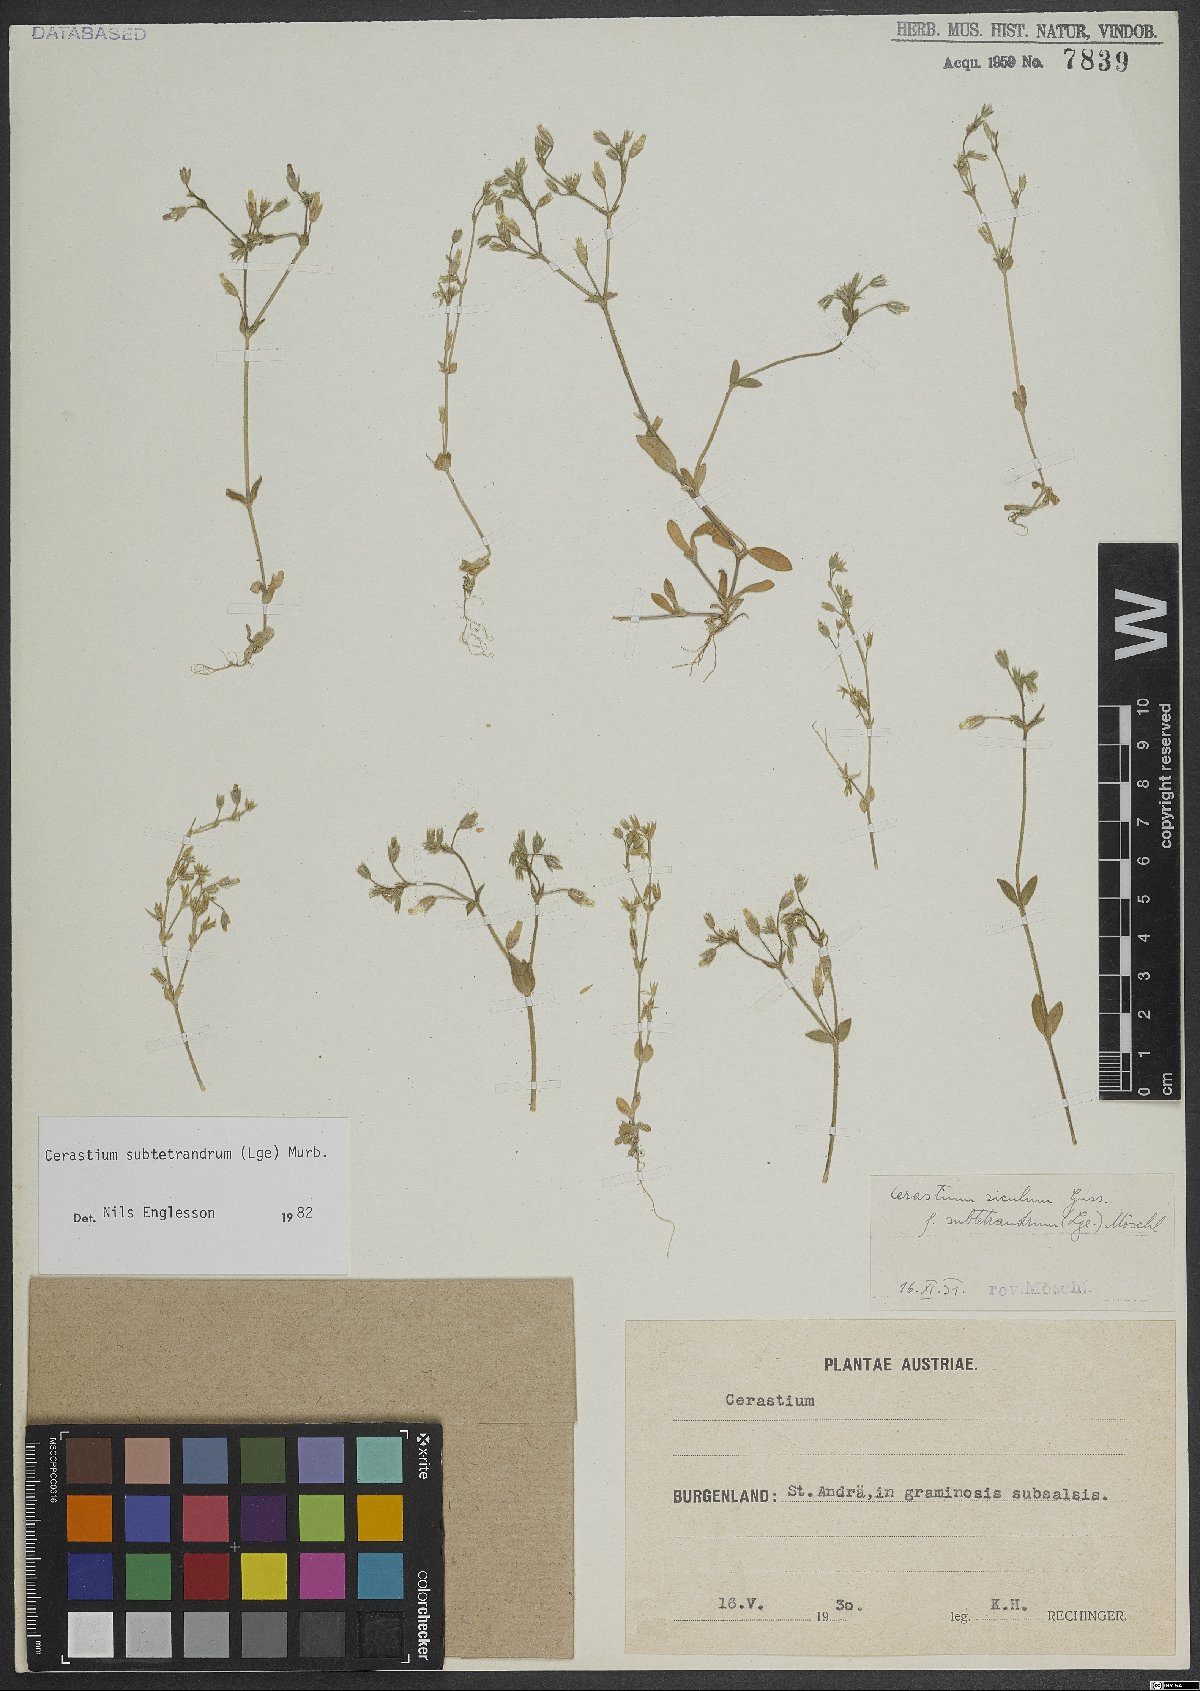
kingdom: Plantae
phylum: Tracheophyta
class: Magnoliopsida
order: Caryophyllales
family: Caryophyllaceae
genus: Cerastium
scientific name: Cerastium pumilum
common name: Dwarf mouse-ear
